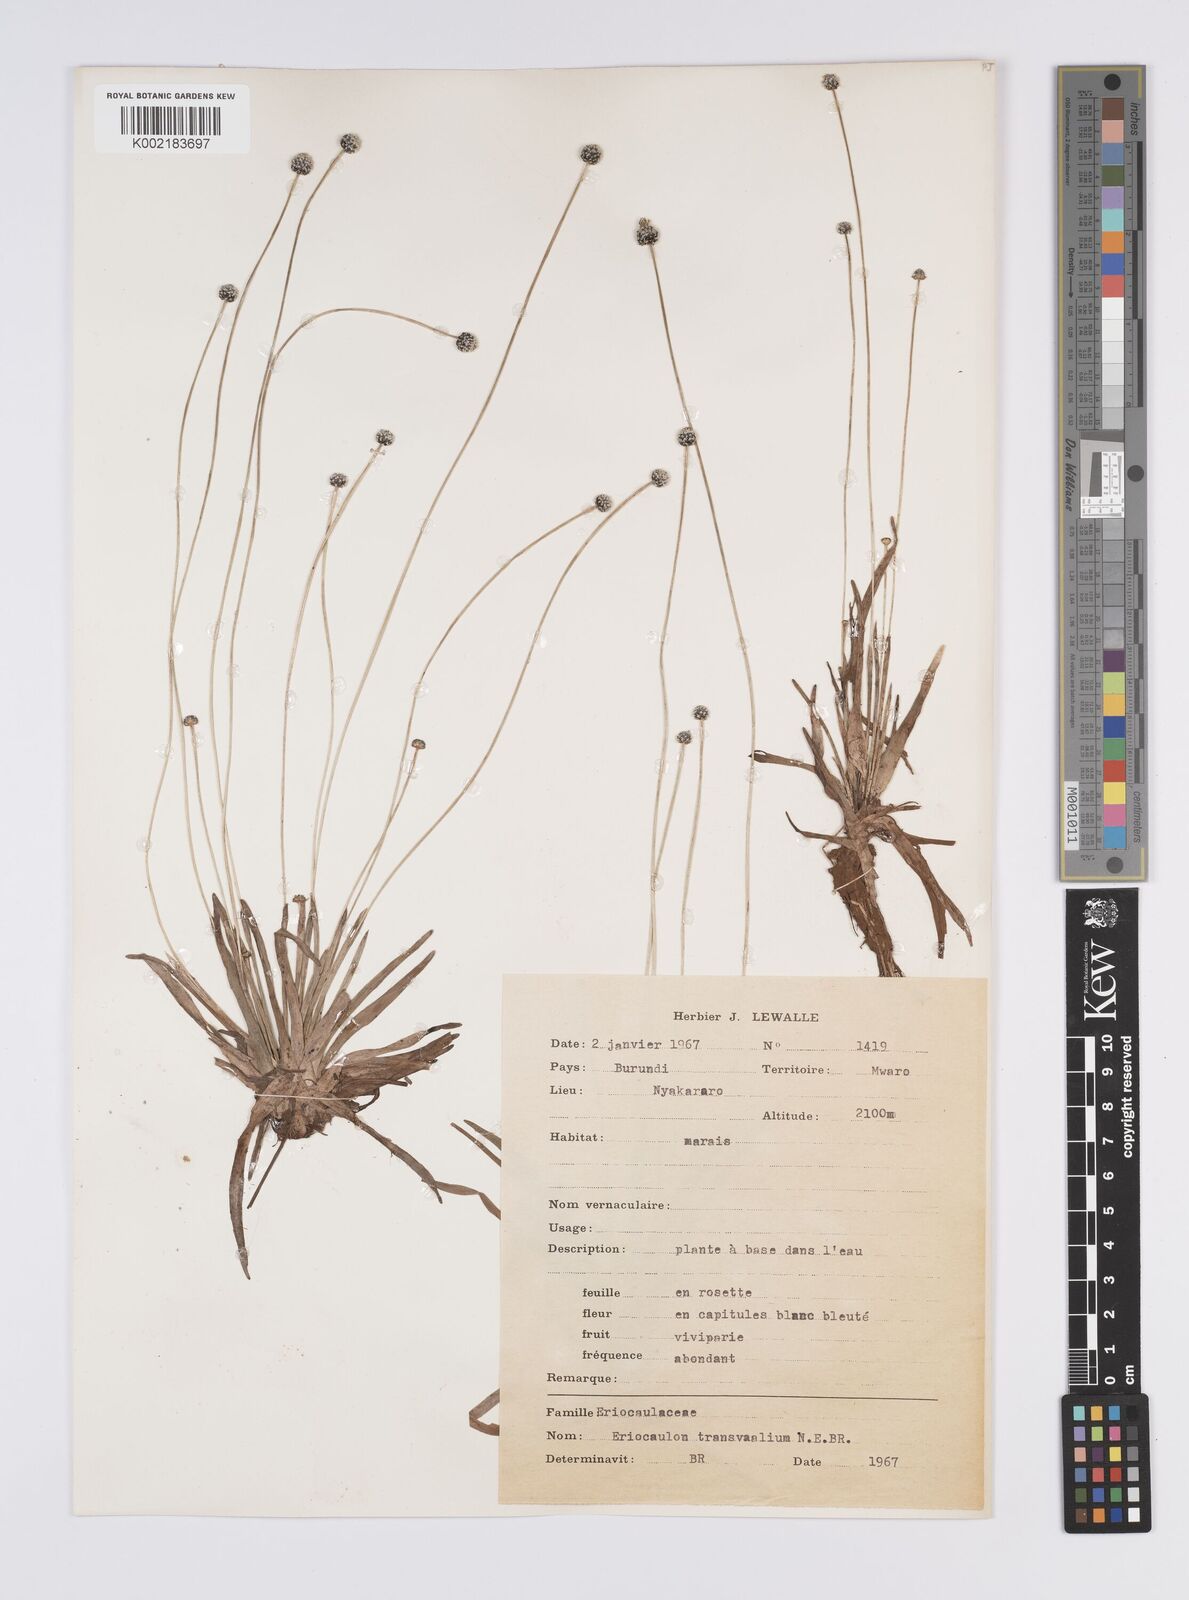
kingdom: Plantae
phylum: Tracheophyta
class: Liliopsida
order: Poales
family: Eriocaulaceae
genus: Eriocaulon
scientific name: Eriocaulon transvaalicum
